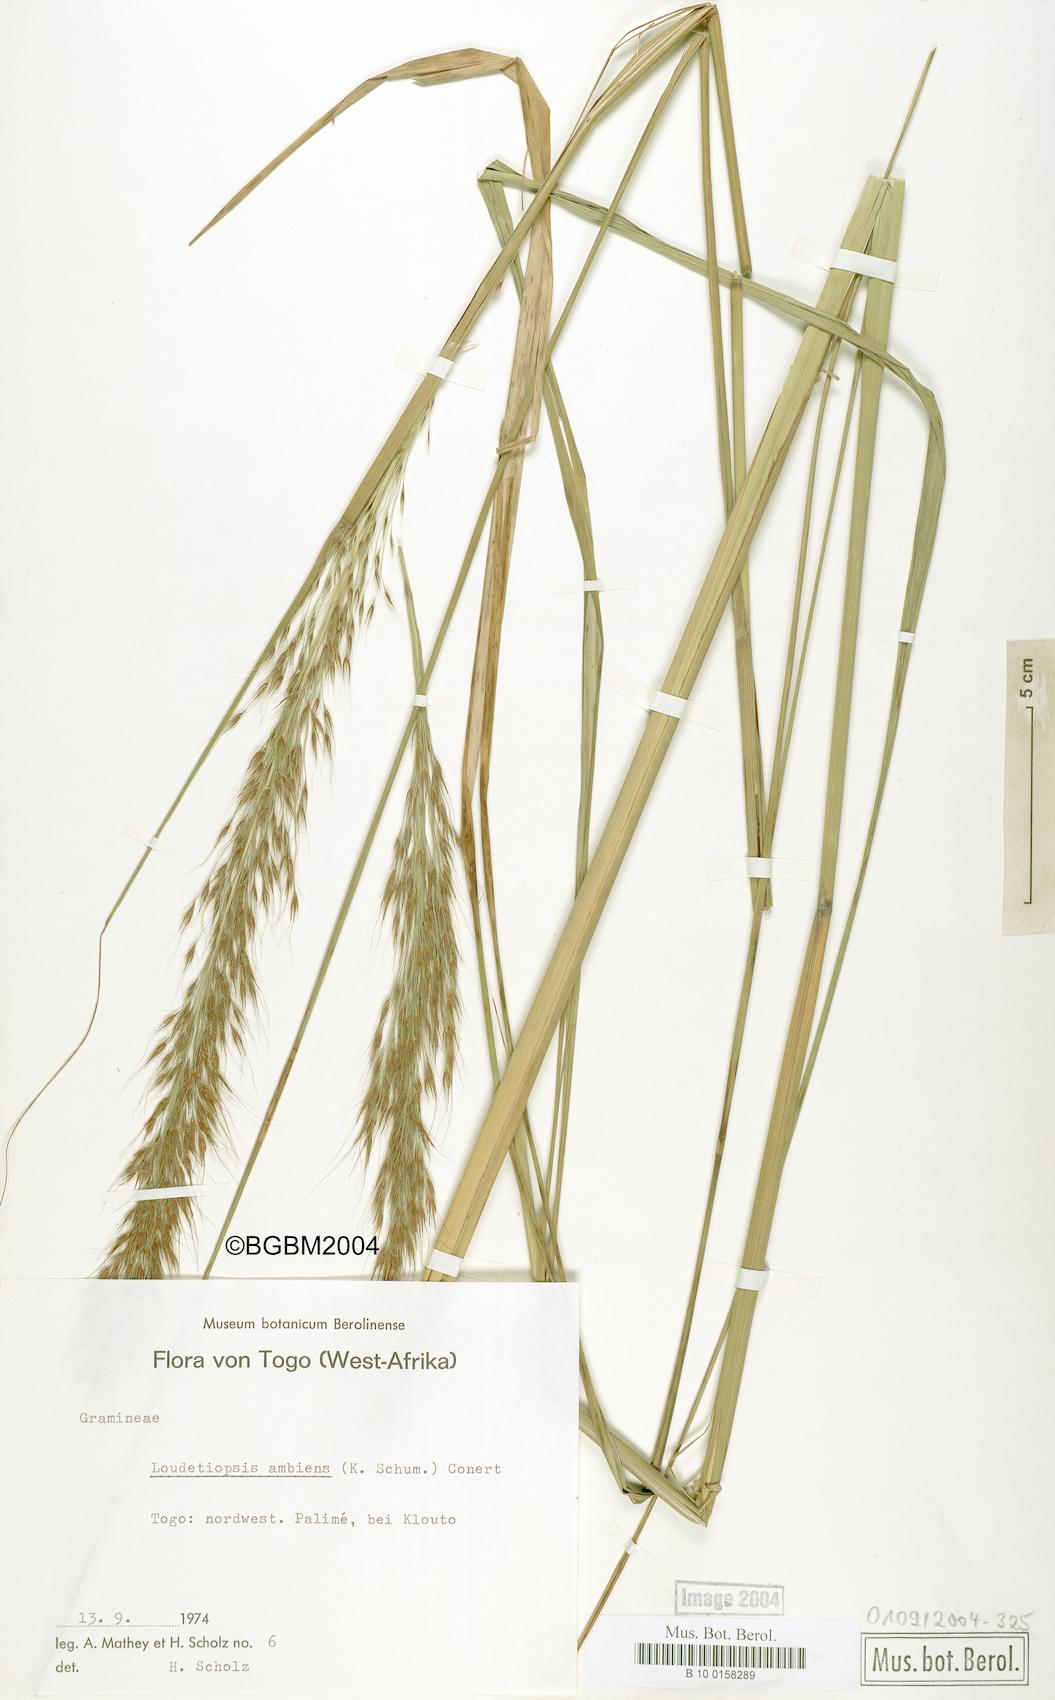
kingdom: Plantae
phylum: Tracheophyta
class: Liliopsida
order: Poales
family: Poaceae
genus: Loudetiopsis
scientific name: Loudetiopsis ambiens
